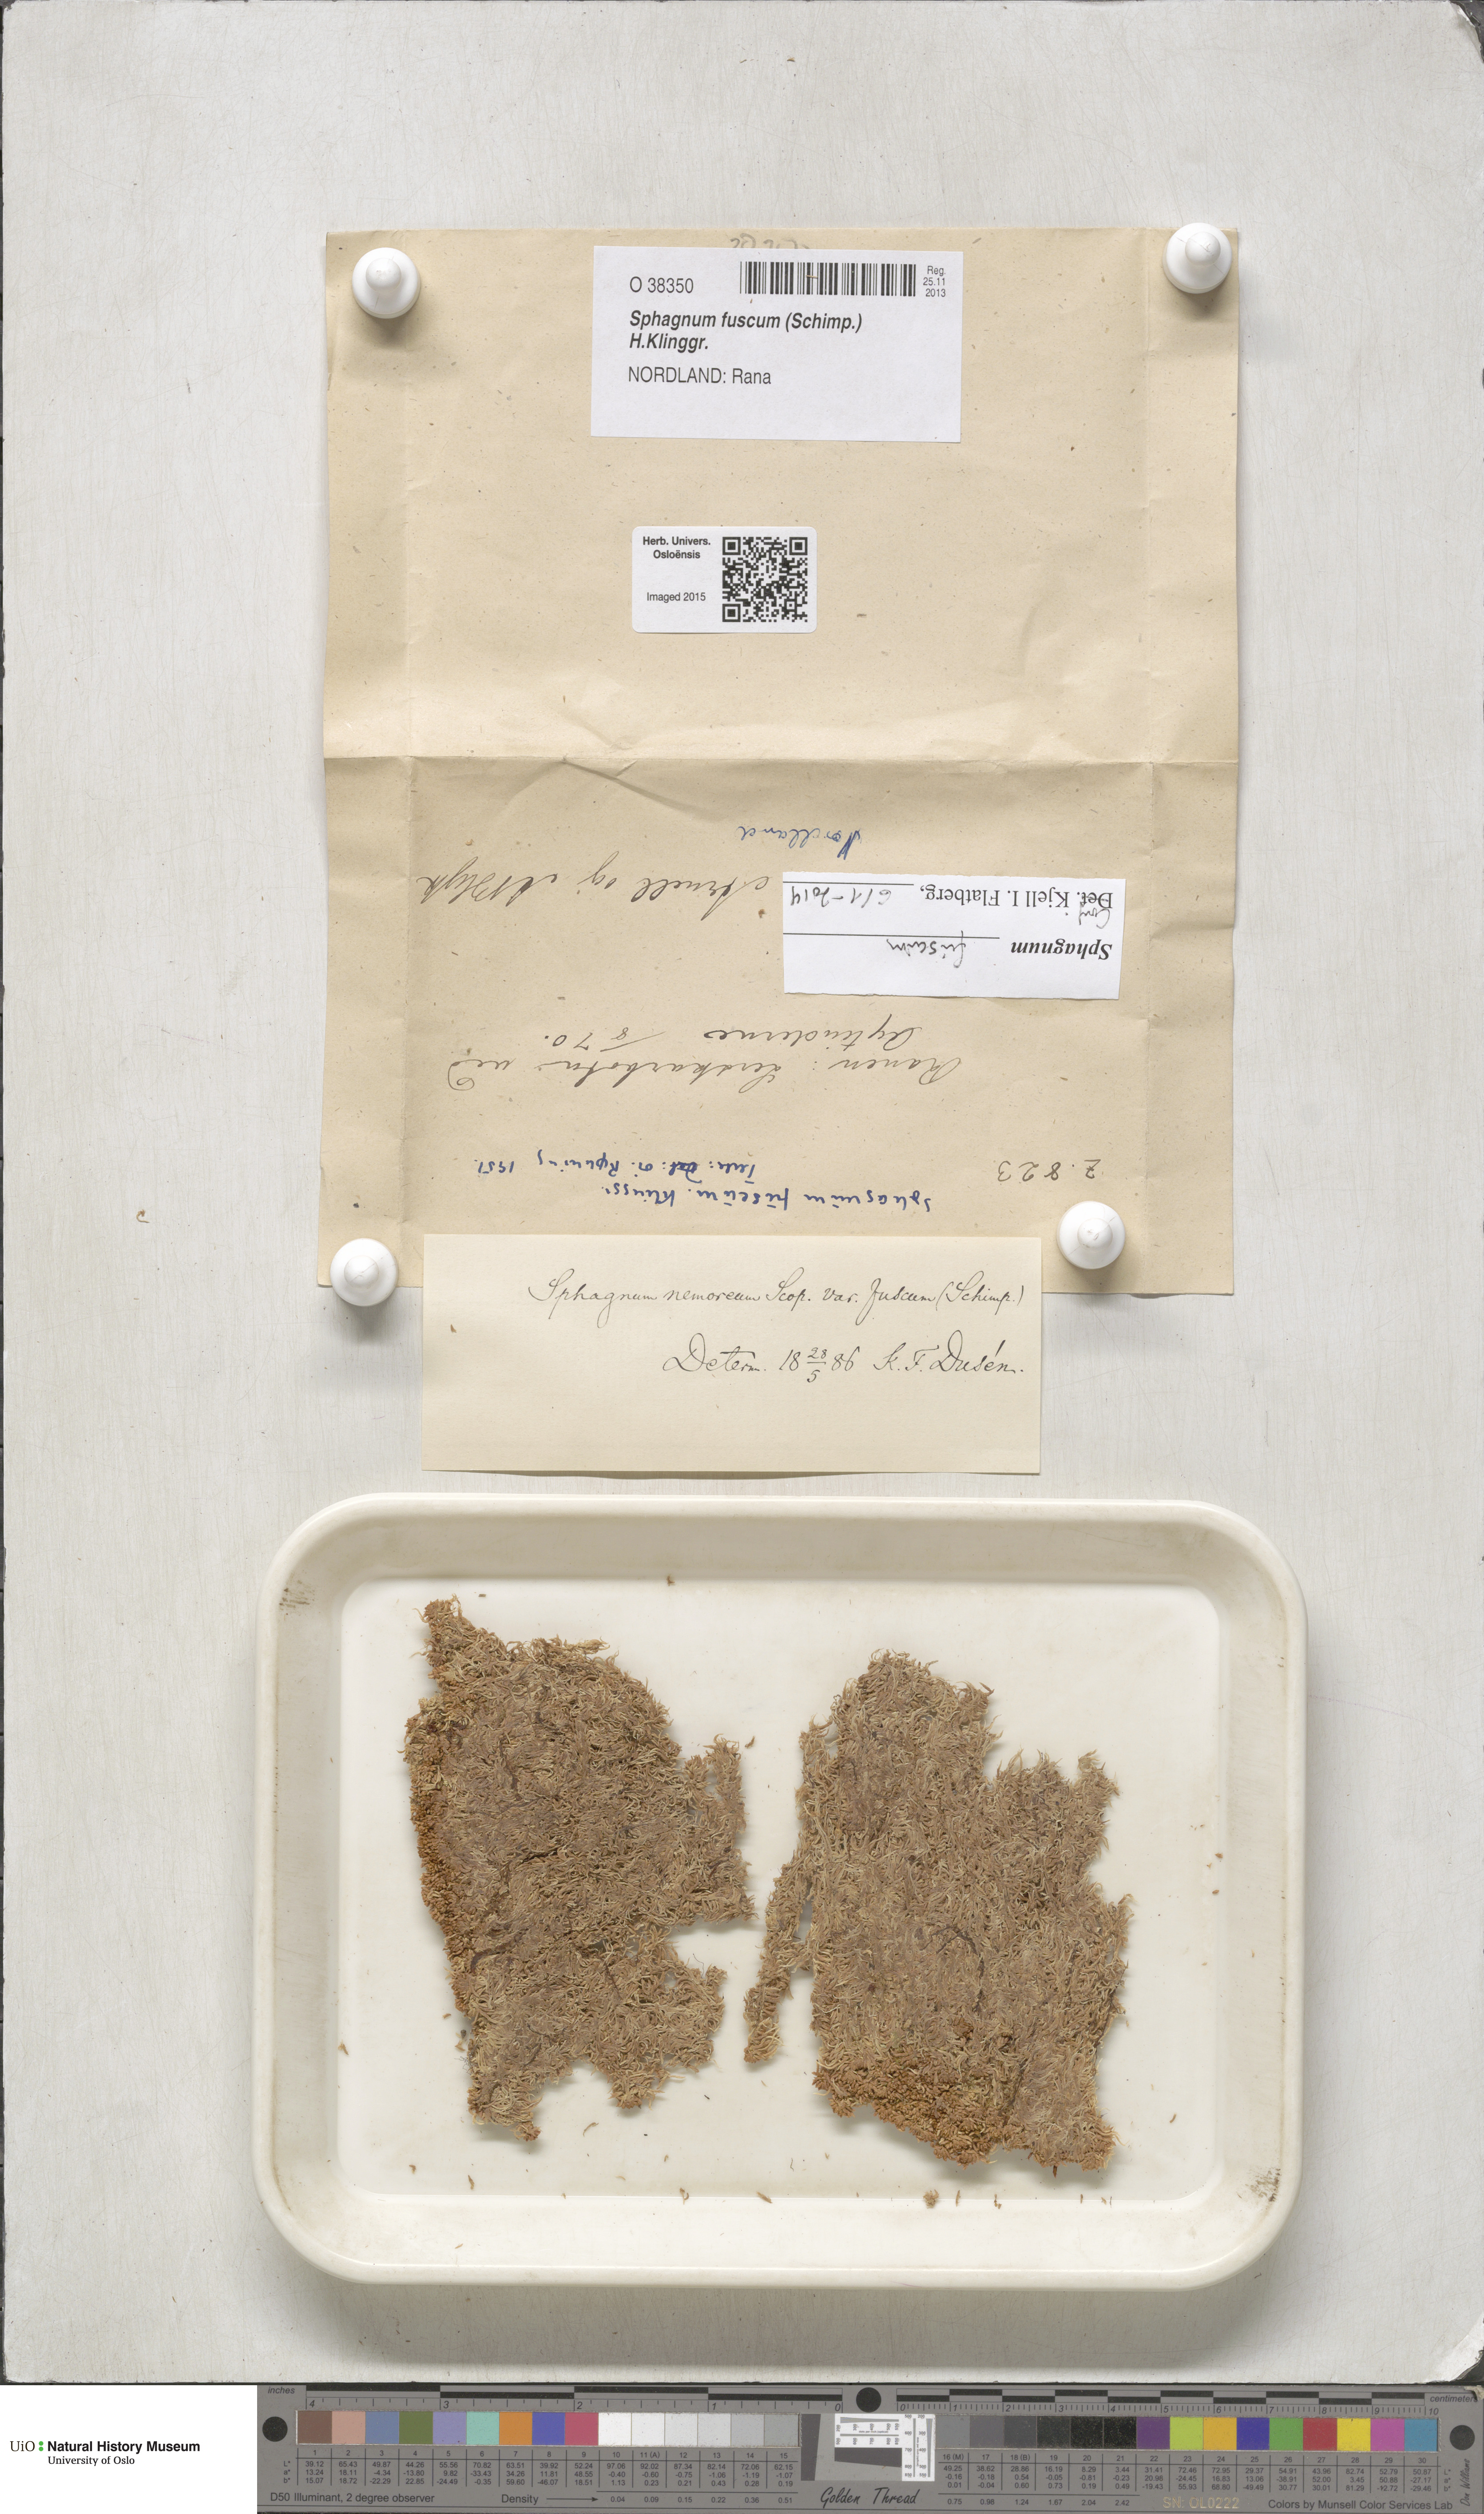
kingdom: Plantae
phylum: Bryophyta
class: Sphagnopsida
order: Sphagnales
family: Sphagnaceae
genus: Sphagnum
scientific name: Sphagnum fuscum
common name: Brown peat moss
